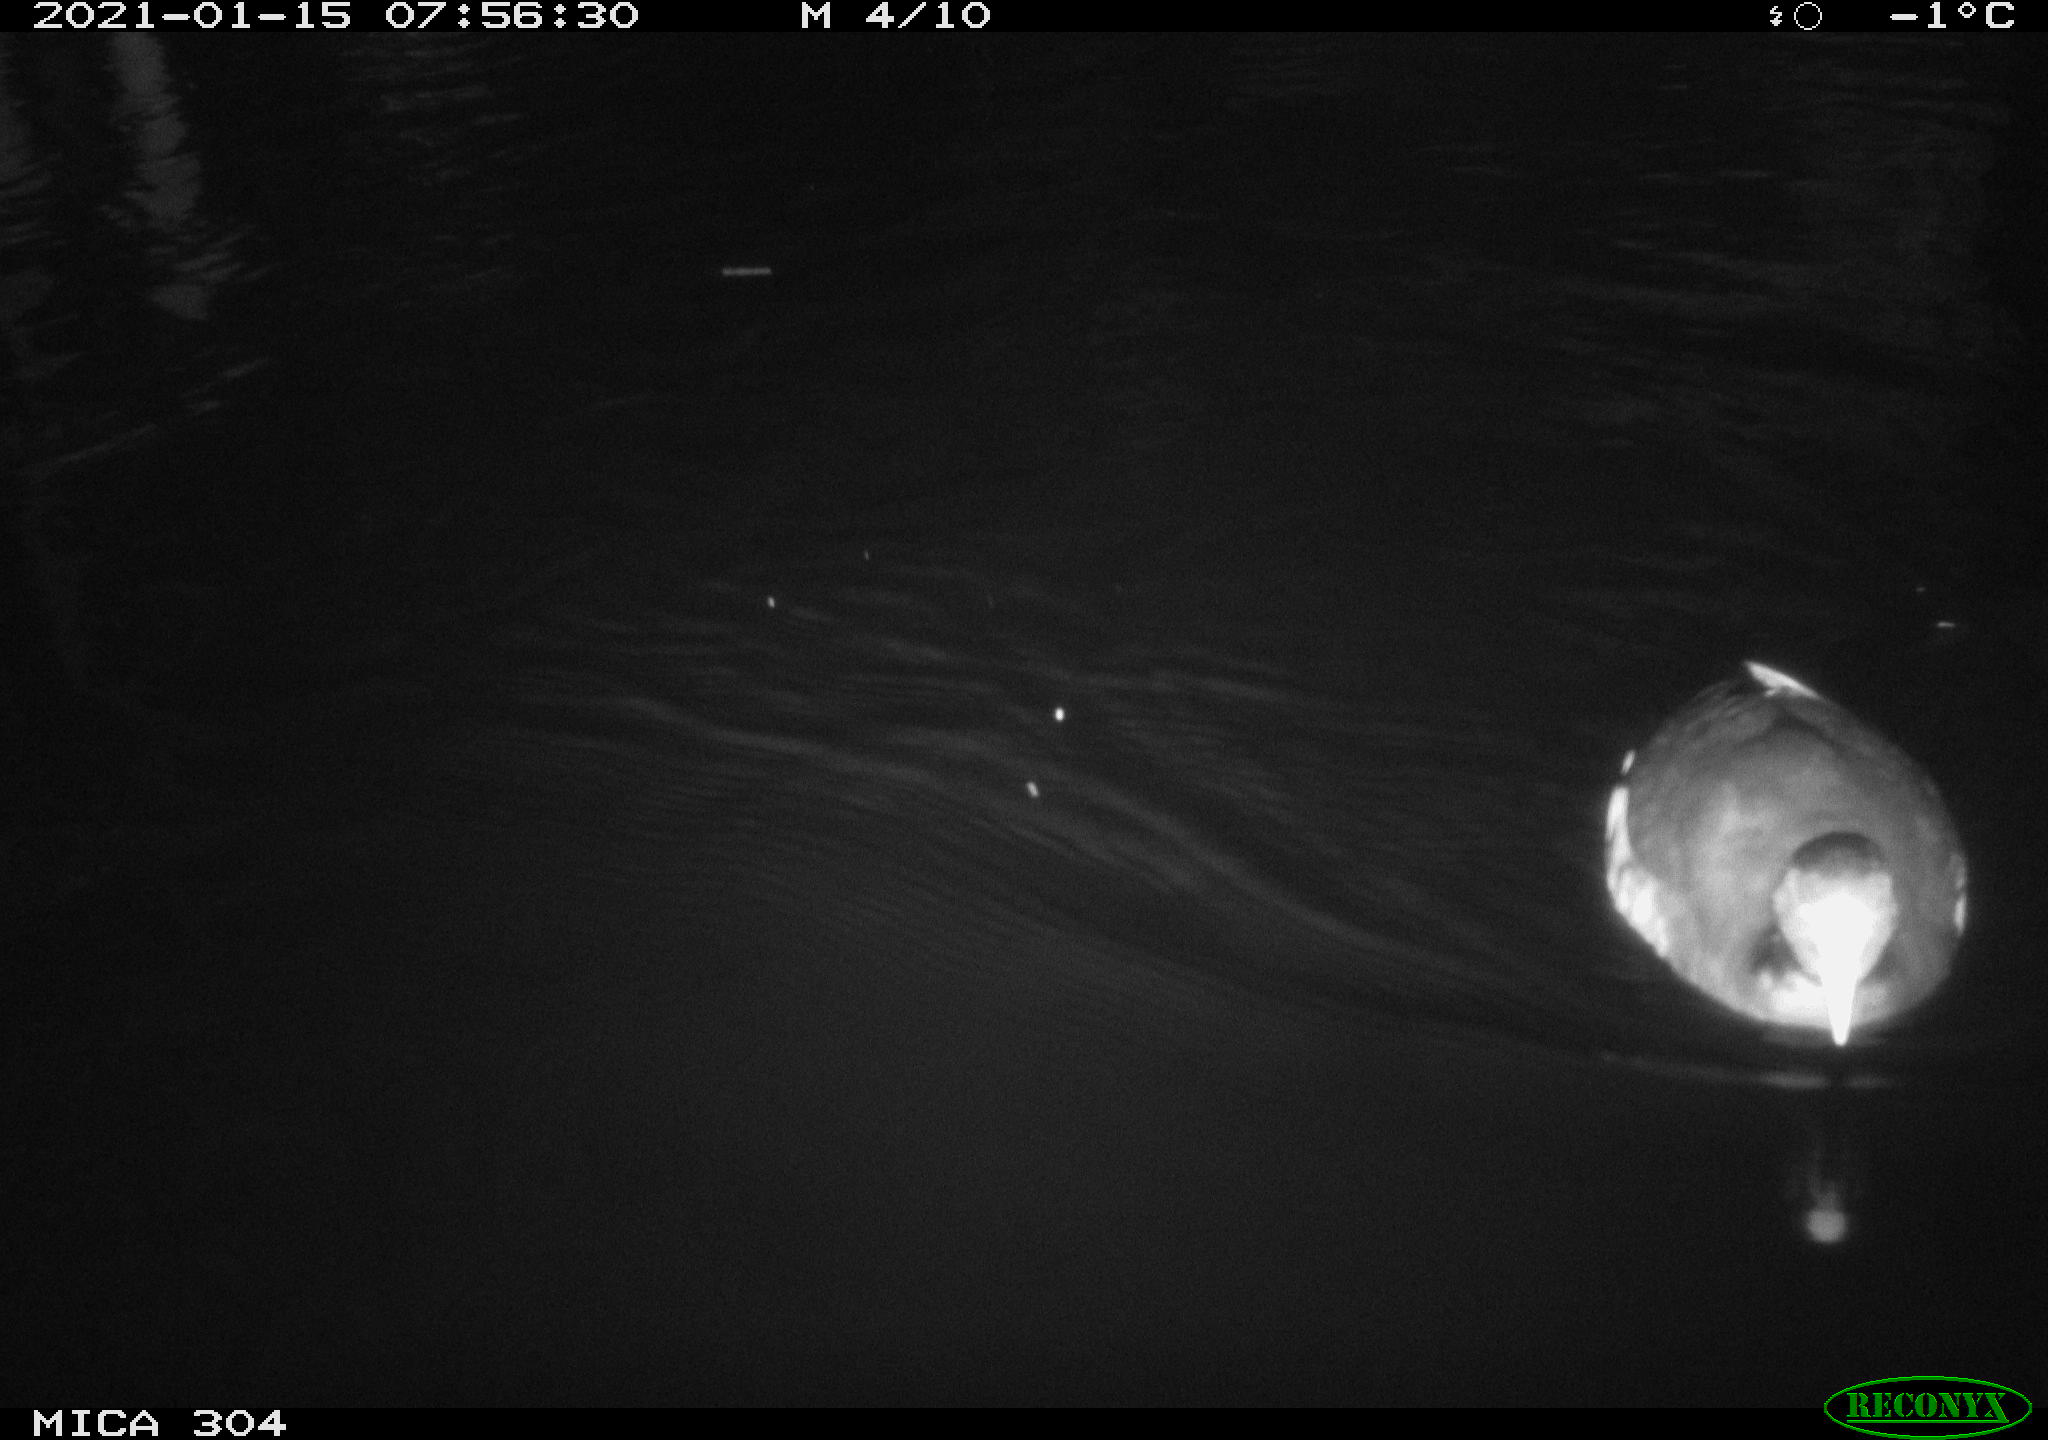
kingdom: Animalia
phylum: Chordata
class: Aves
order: Gruiformes
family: Rallidae
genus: Fulica
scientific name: Fulica atra
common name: Eurasian coot
